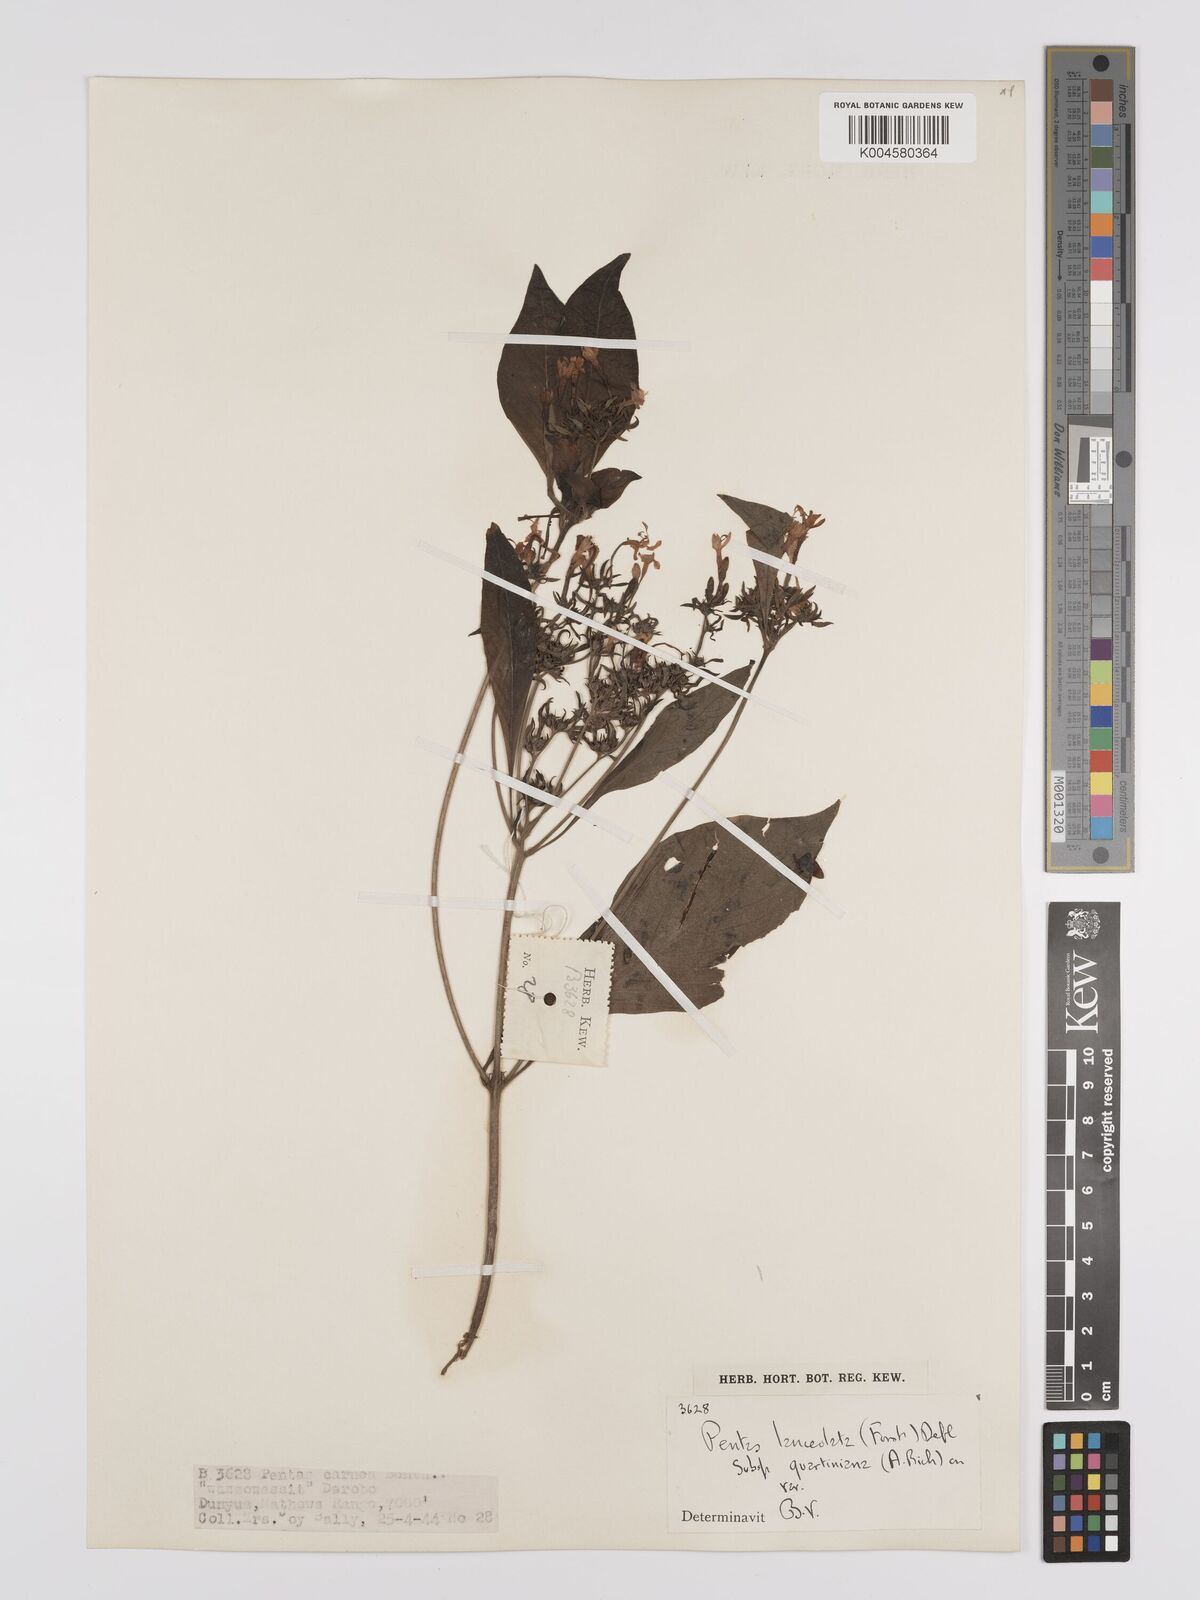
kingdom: Plantae
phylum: Tracheophyta
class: Magnoliopsida
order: Gentianales
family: Rubiaceae
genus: Pentas
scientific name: Pentas lanceolata
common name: Egyptian starcluster
